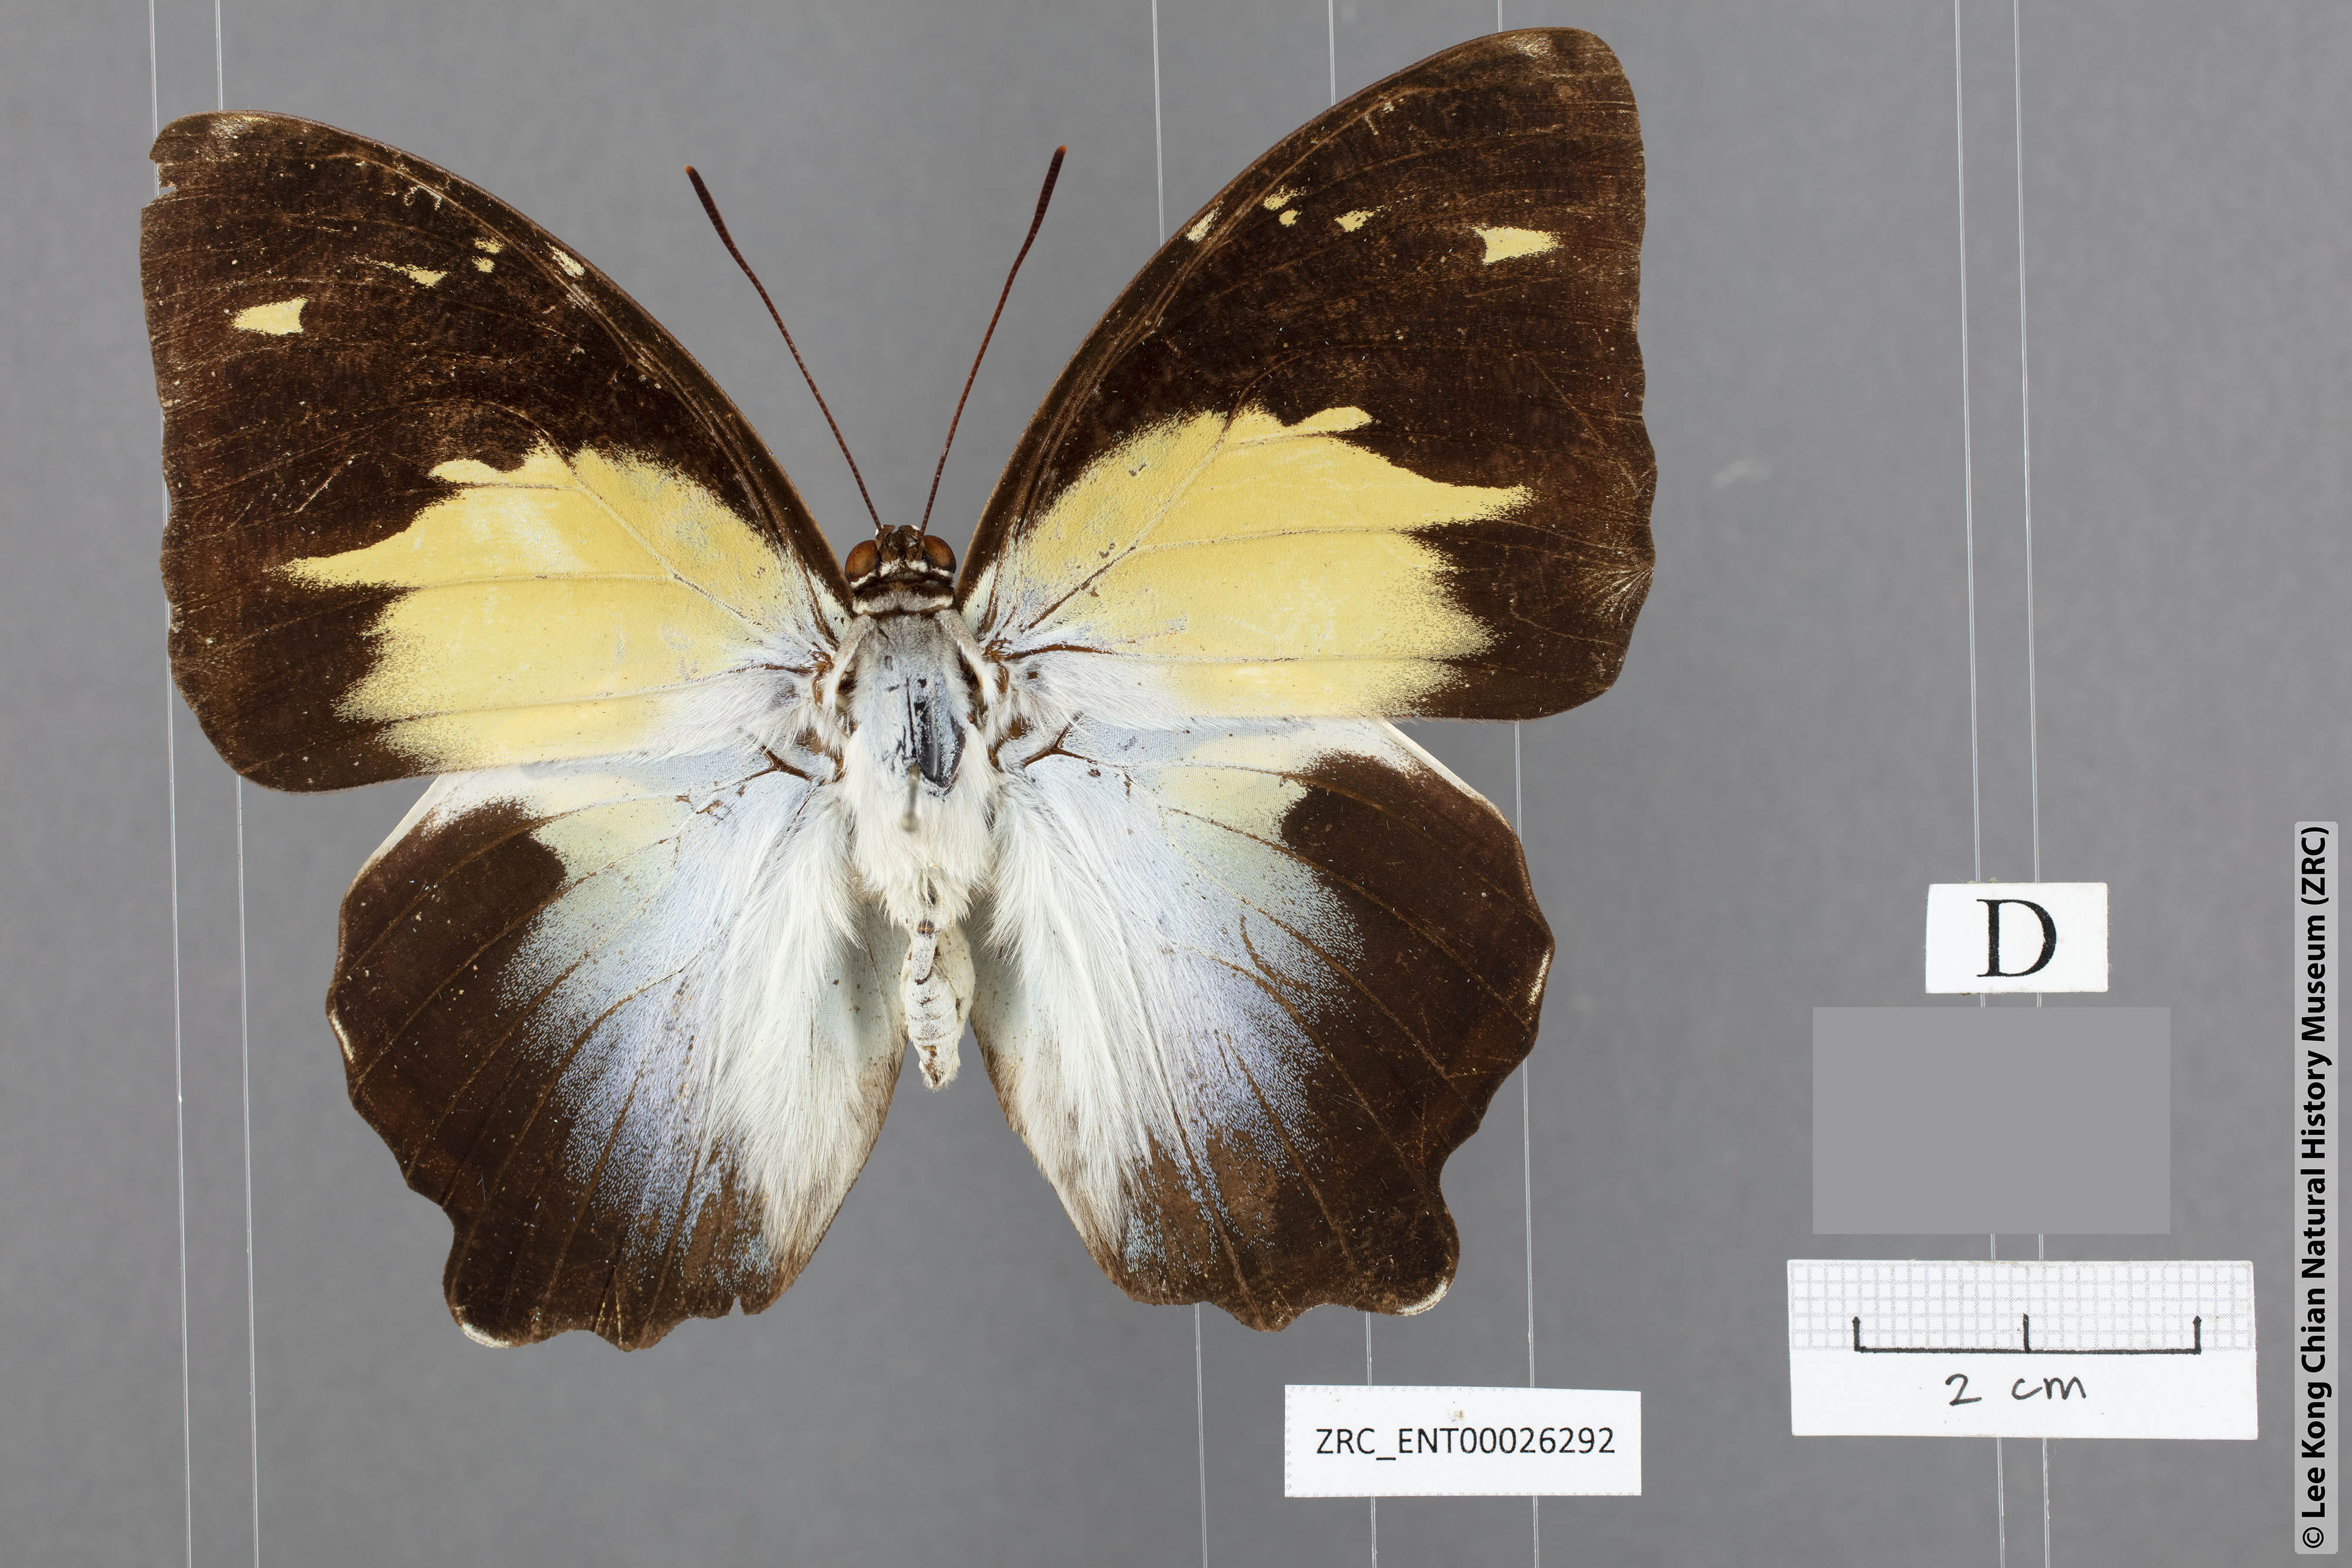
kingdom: Animalia
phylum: Arthropoda
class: Insecta
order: Lepidoptera
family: Nymphalidae
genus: Prothoe
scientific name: Prothoe Agatasa calydonia
